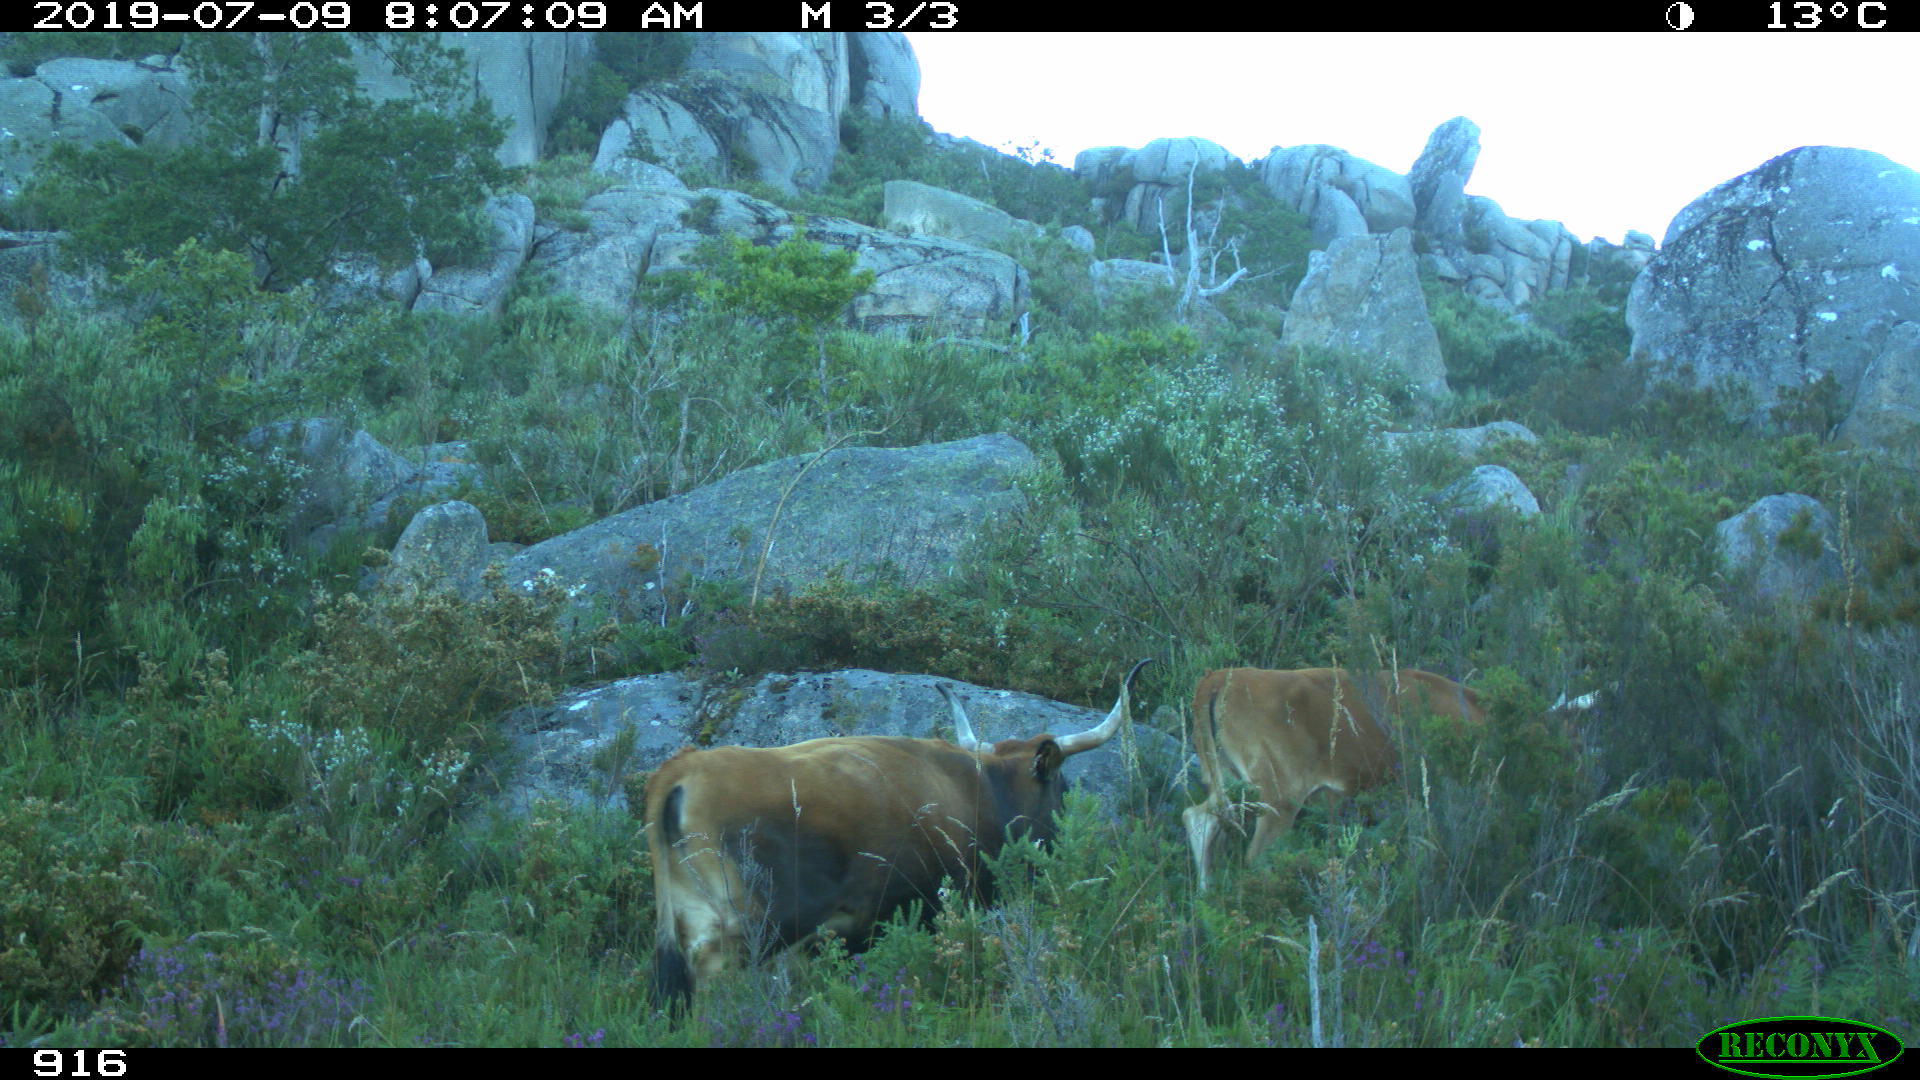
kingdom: Animalia
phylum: Chordata
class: Mammalia
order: Artiodactyla
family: Bovidae
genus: Bos
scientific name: Bos taurus
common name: Domesticated cattle
